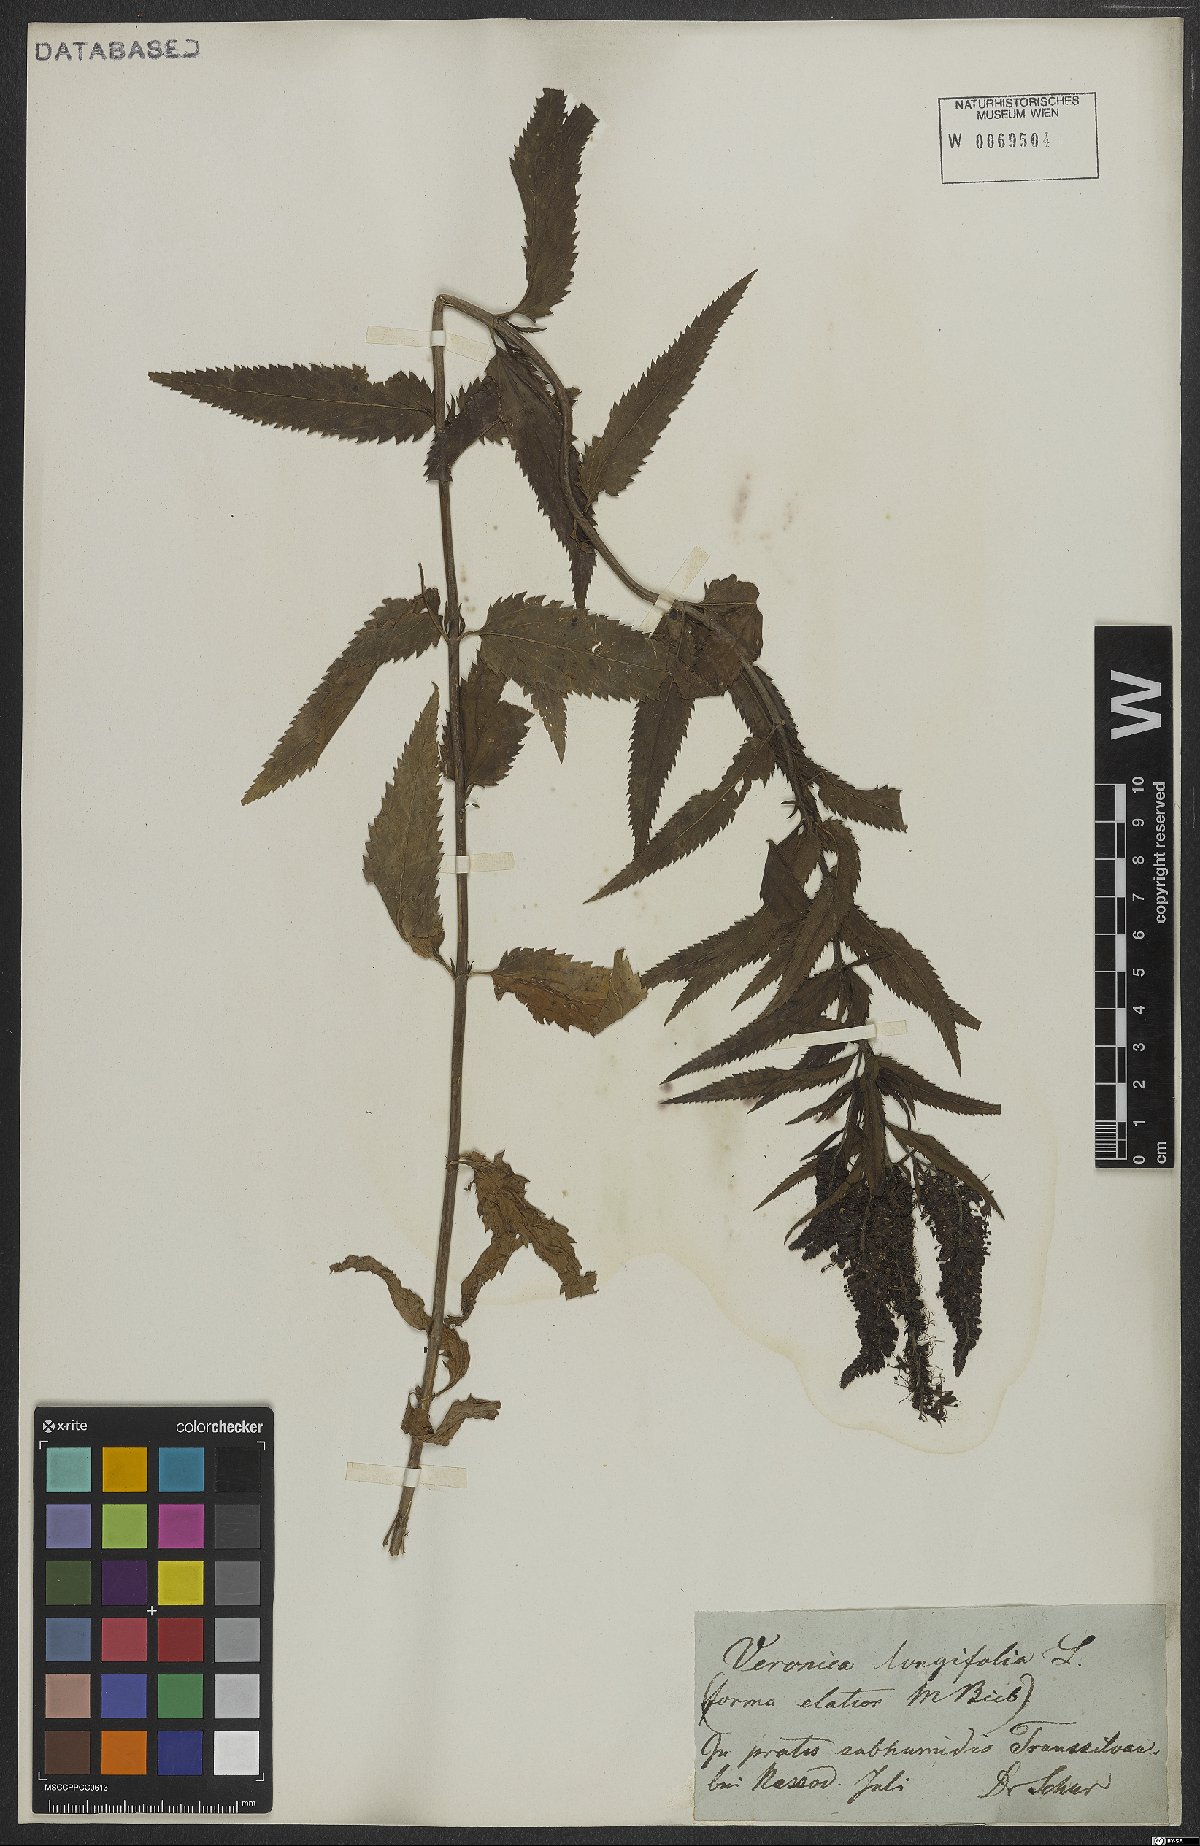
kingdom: Plantae
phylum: Tracheophyta
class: Magnoliopsida
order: Lamiales
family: Plantaginaceae
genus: Veronica
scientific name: Veronica longifolia
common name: Garden speedwell
